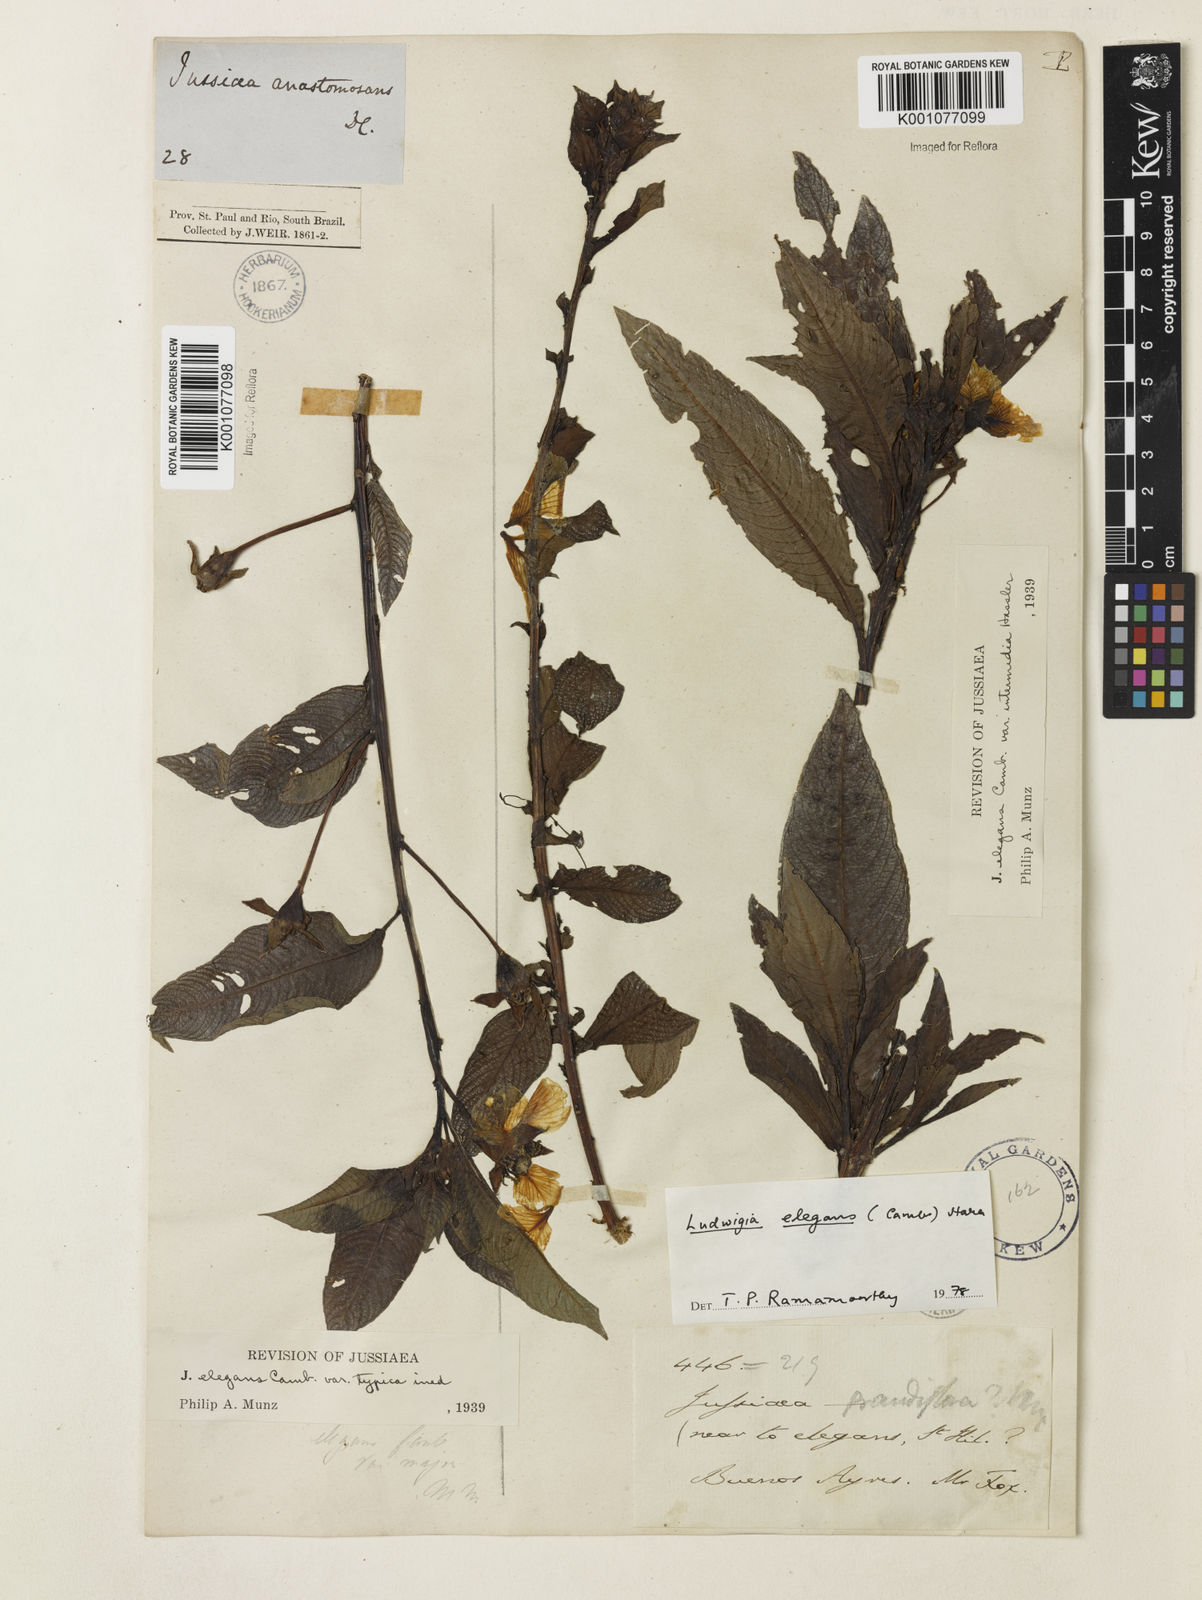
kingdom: Plantae
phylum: Tracheophyta
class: Magnoliopsida
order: Myrtales
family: Onagraceae
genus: Ludwigia
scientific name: Ludwigia elegans
